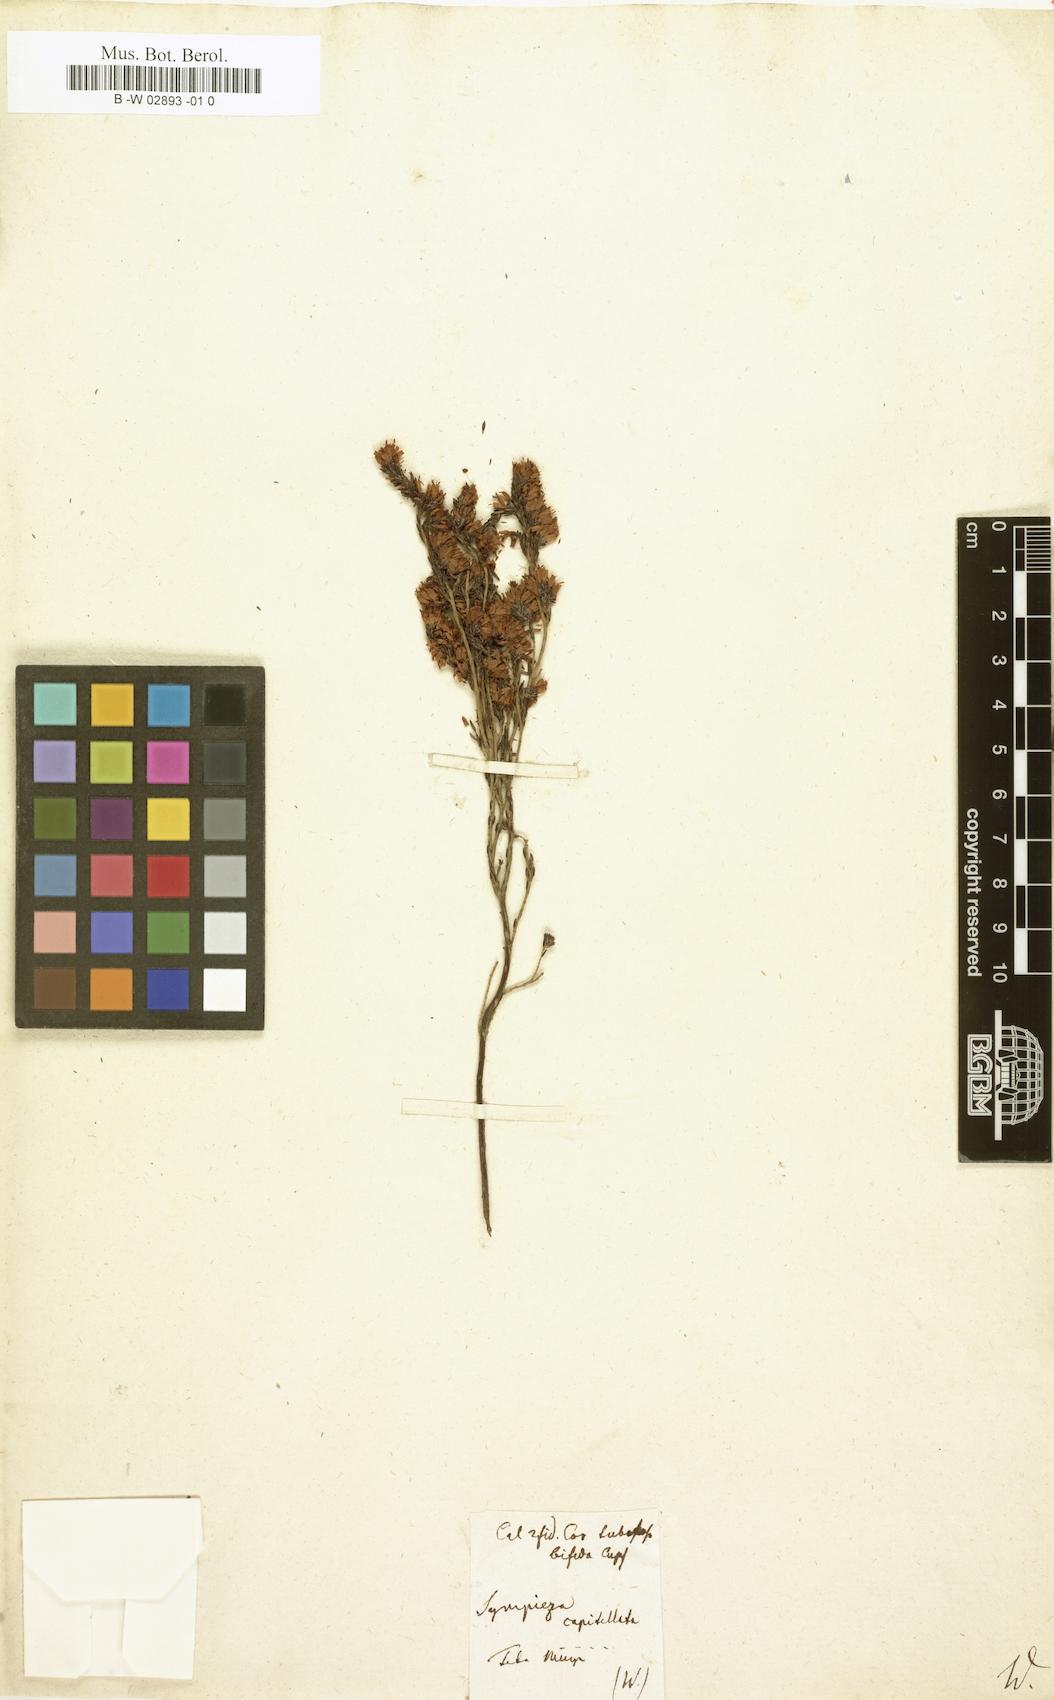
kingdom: Plantae
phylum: Tracheophyta
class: Magnoliopsida
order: Ericales
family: Ericaceae
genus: Erica
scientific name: Erica labialis
